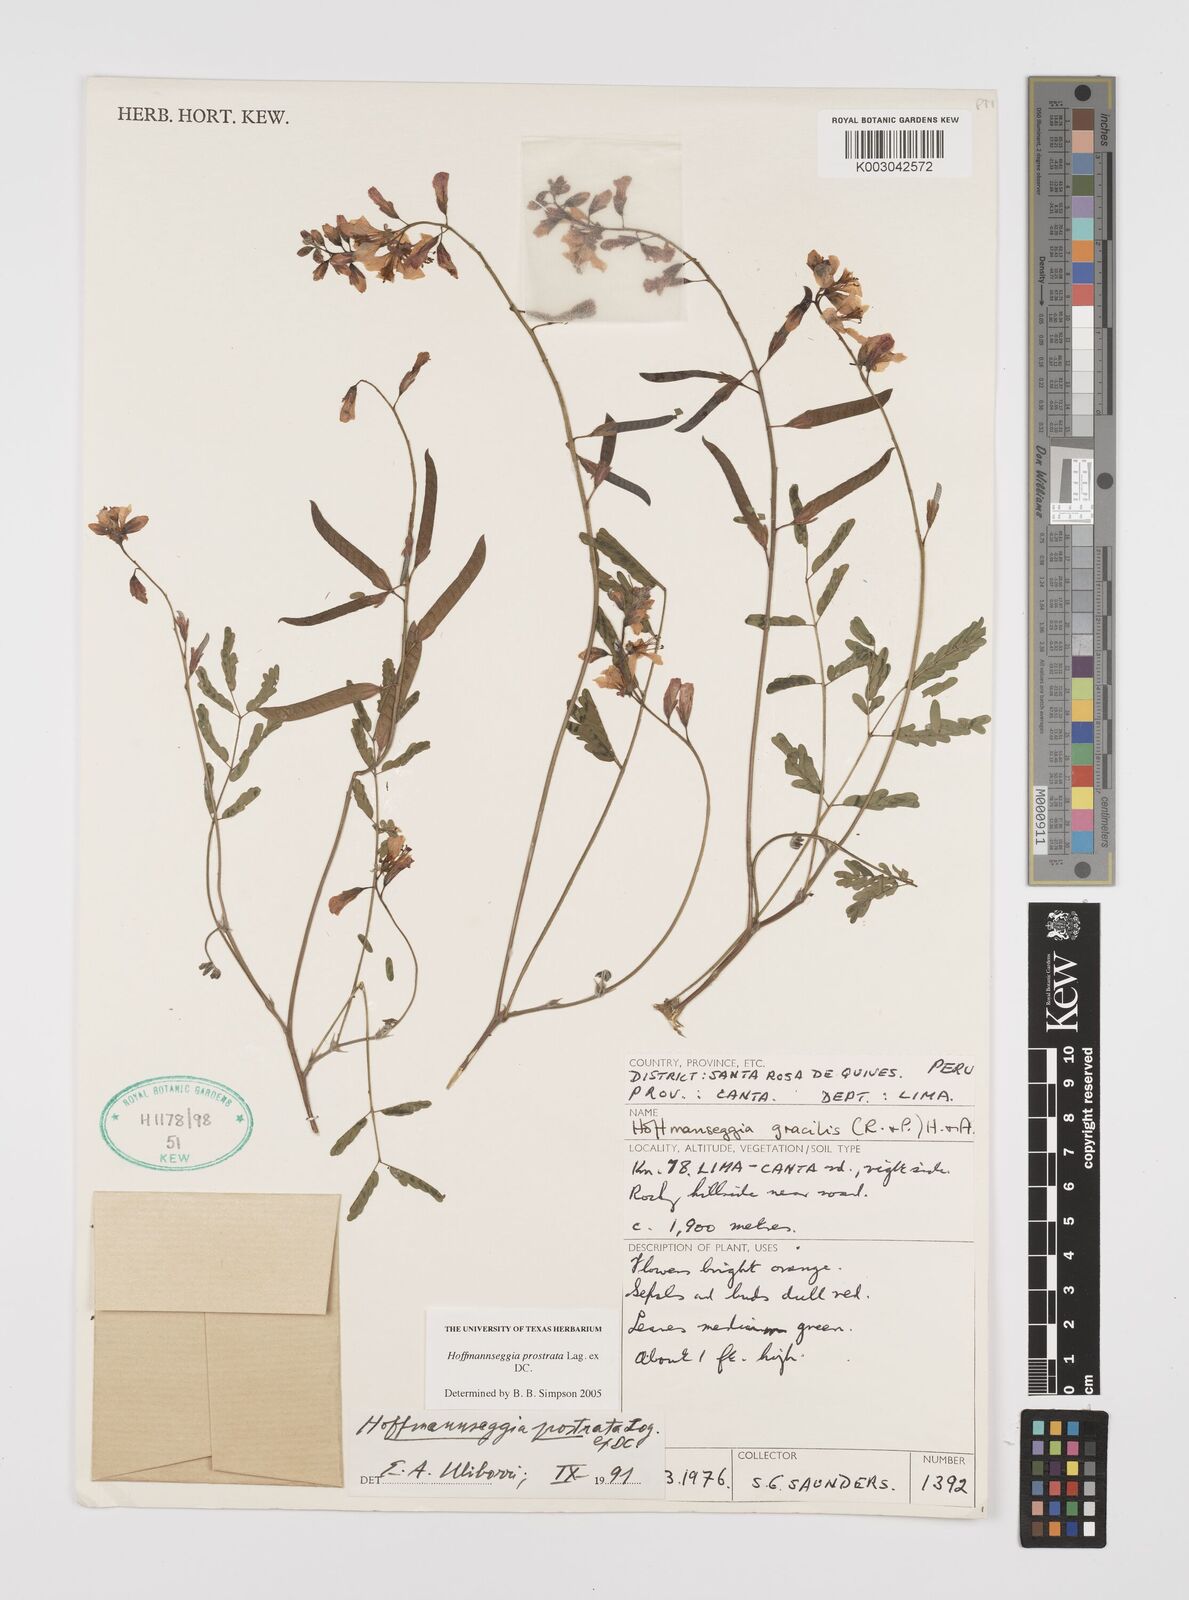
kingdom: Plantae
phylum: Tracheophyta
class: Magnoliopsida
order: Fabales
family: Fabaceae
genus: Hoffmannseggia
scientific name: Hoffmannseggia prostrata
